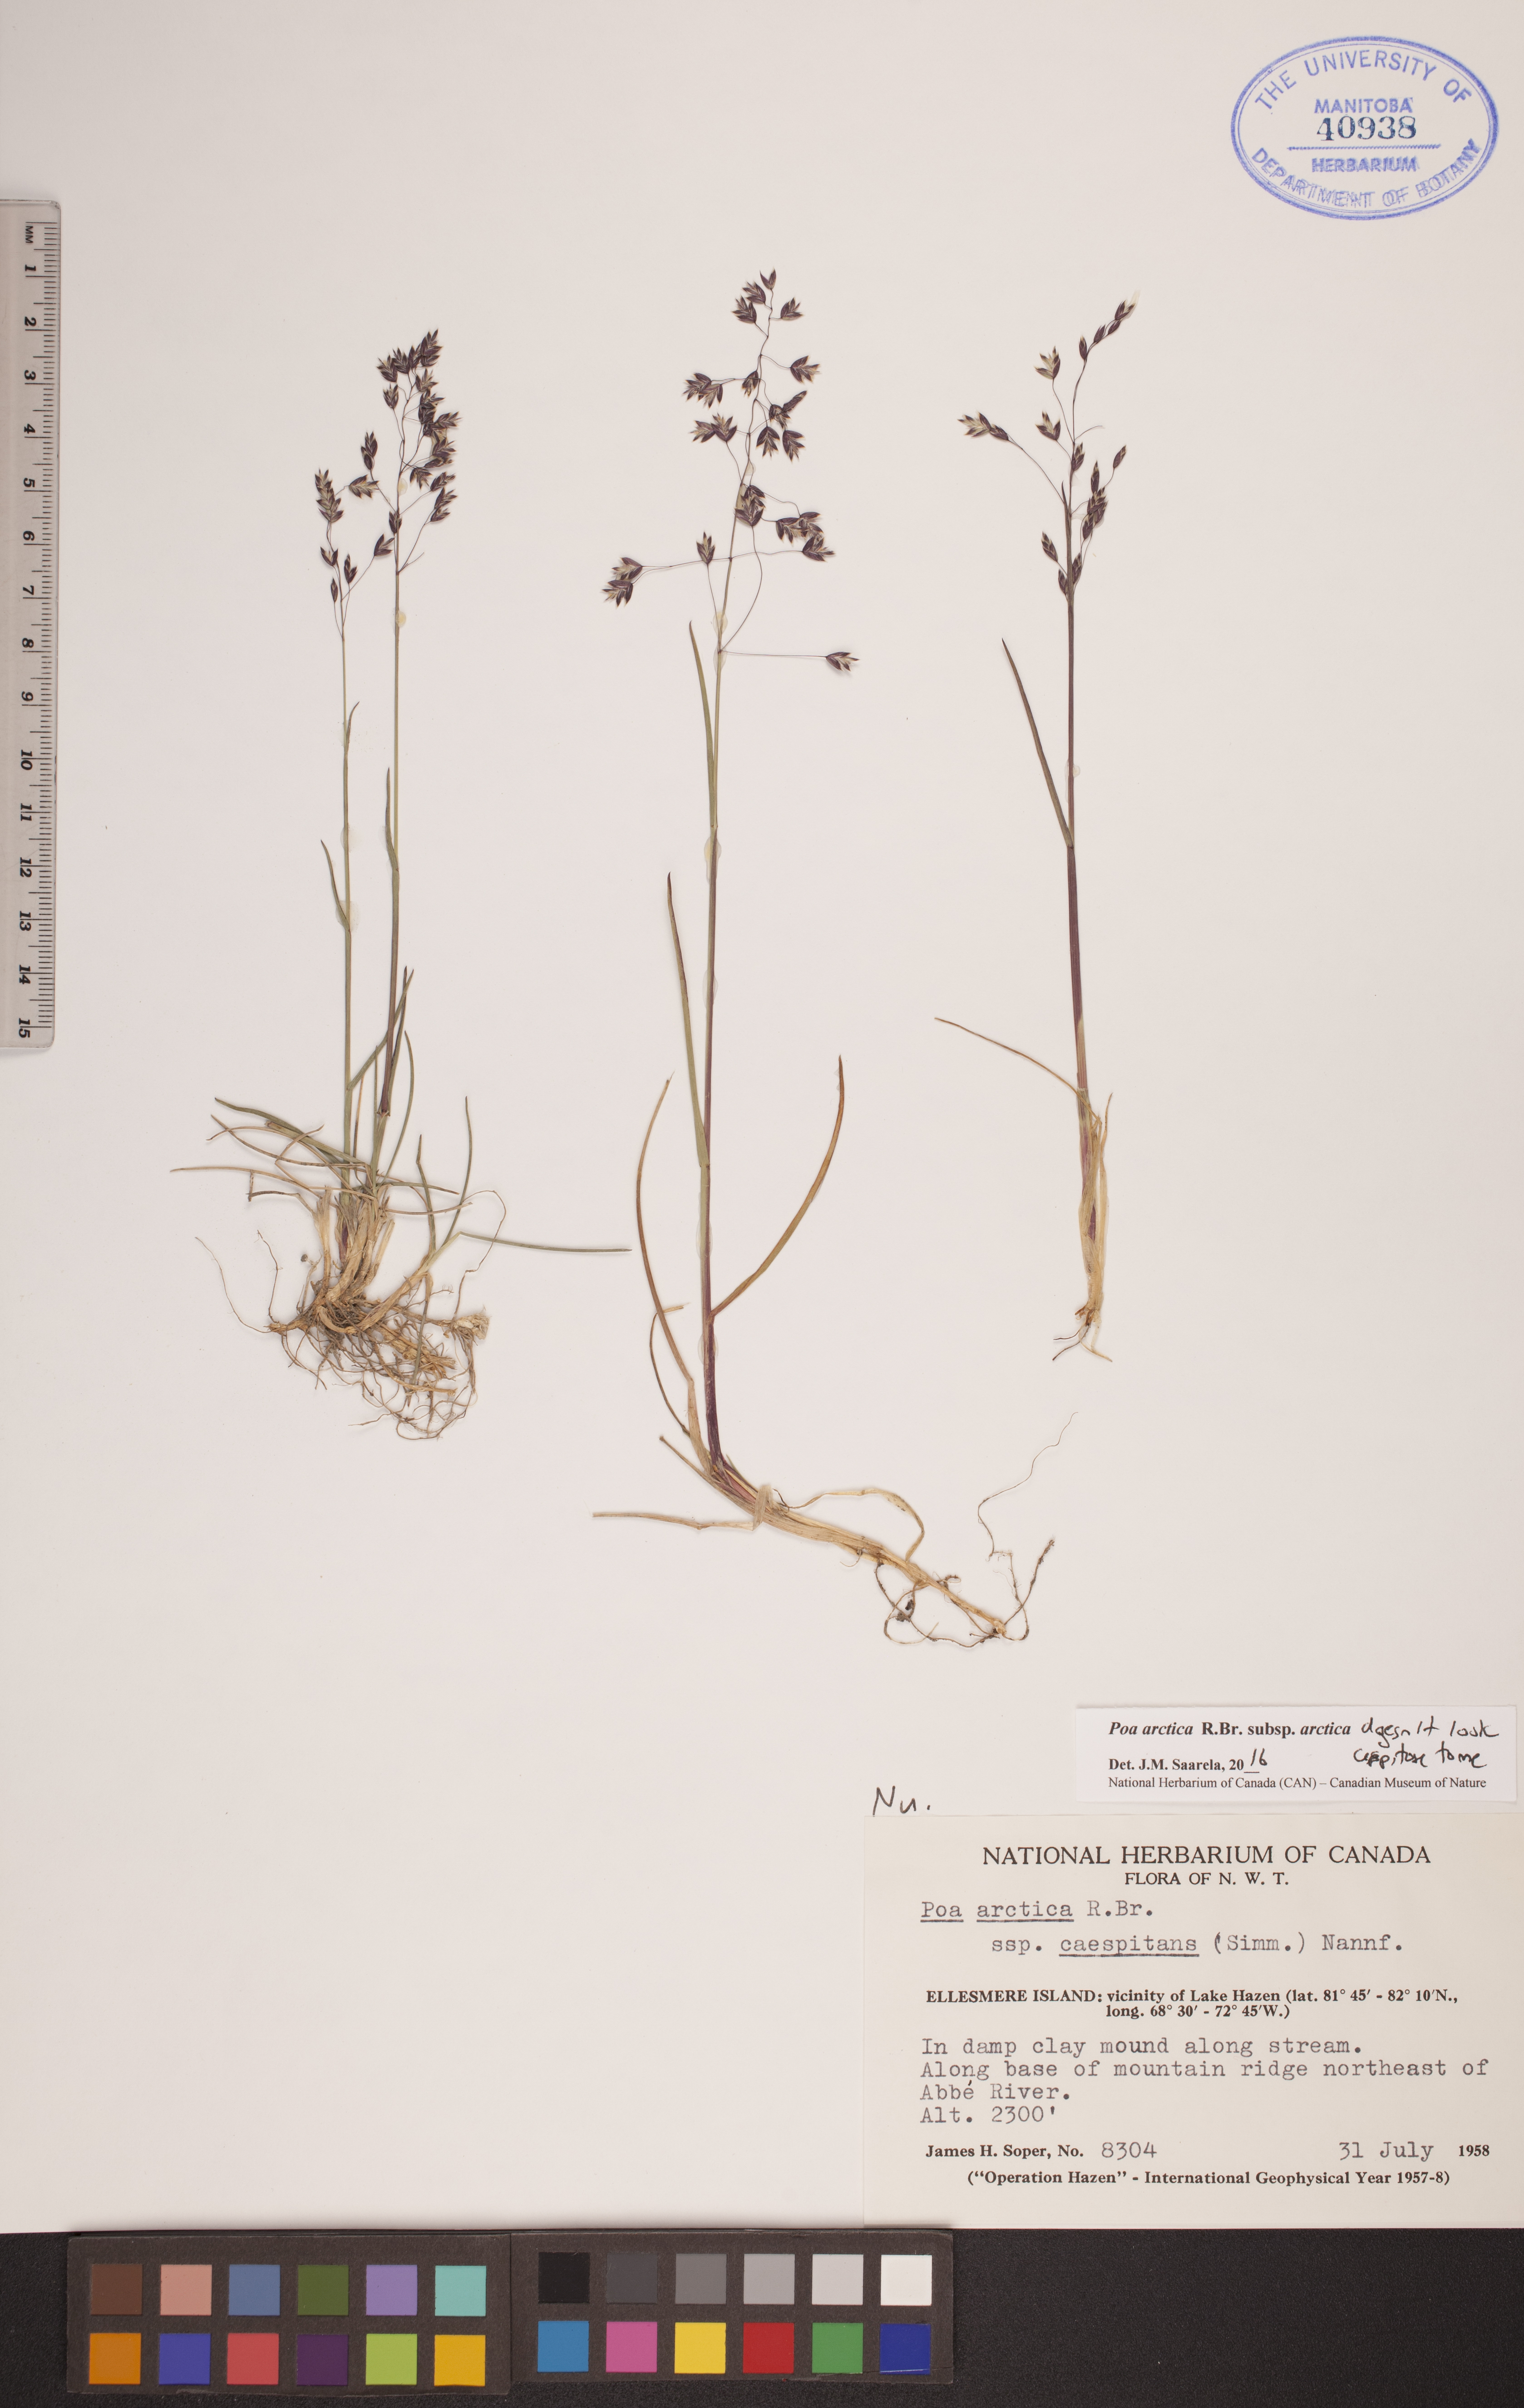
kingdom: Plantae
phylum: Tracheophyta
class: Liliopsida
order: Poales
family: Poaceae
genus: Poa
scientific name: Poa arctica
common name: Arctic bluegrass
